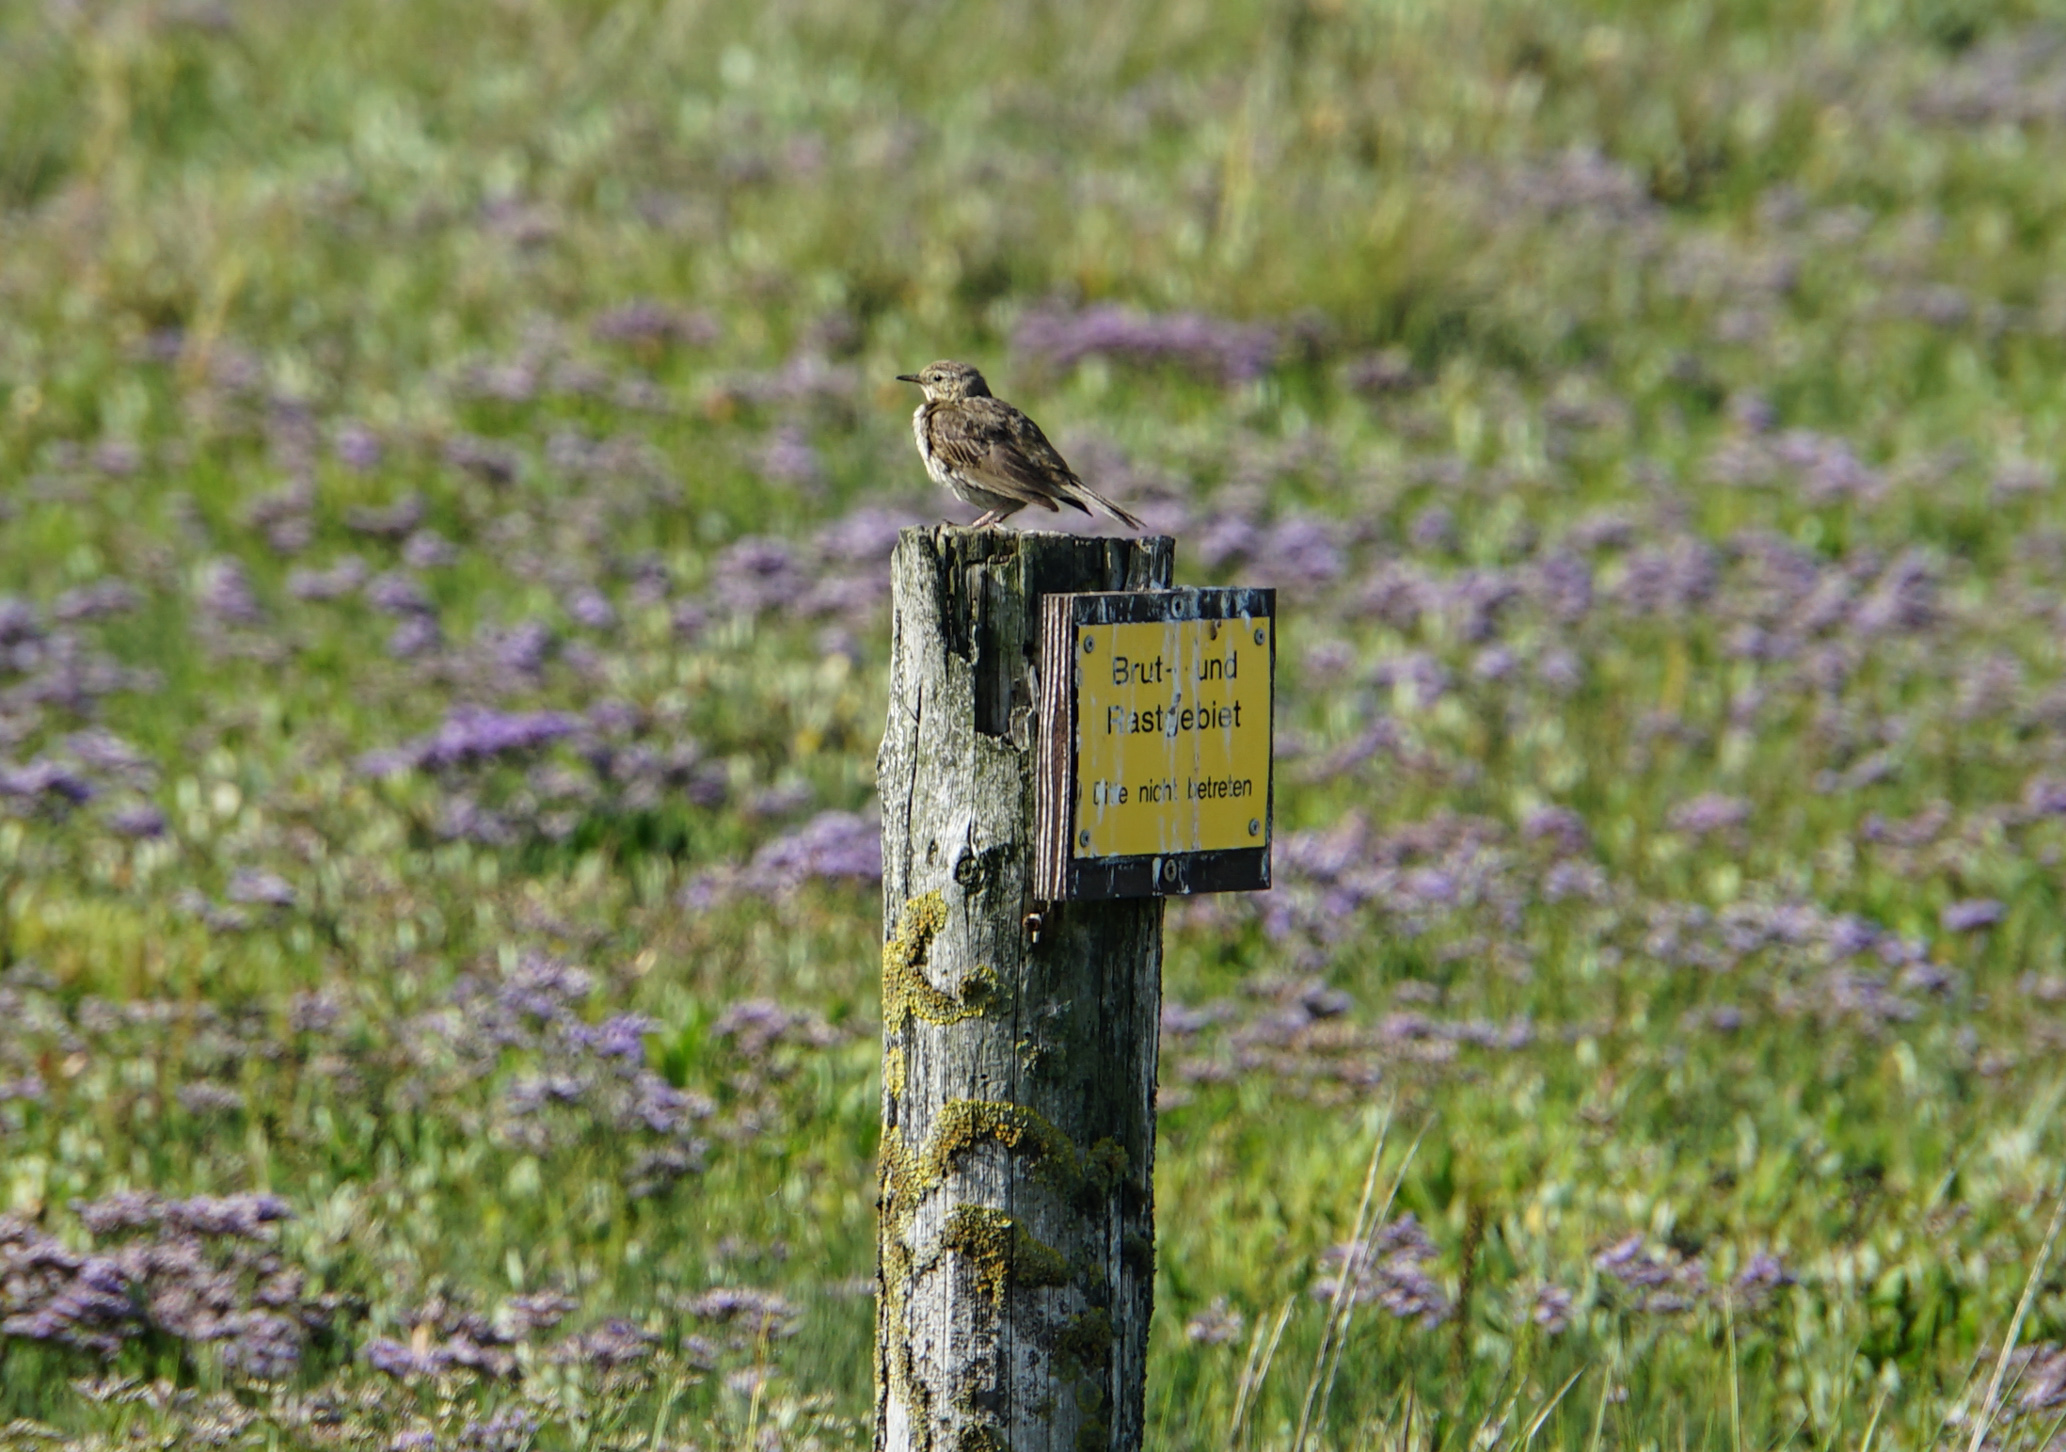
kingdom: Animalia
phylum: Chordata
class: Aves
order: Passeriformes
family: Alaudidae
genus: Alauda
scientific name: Alauda arvensis
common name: Eurasian skylark
